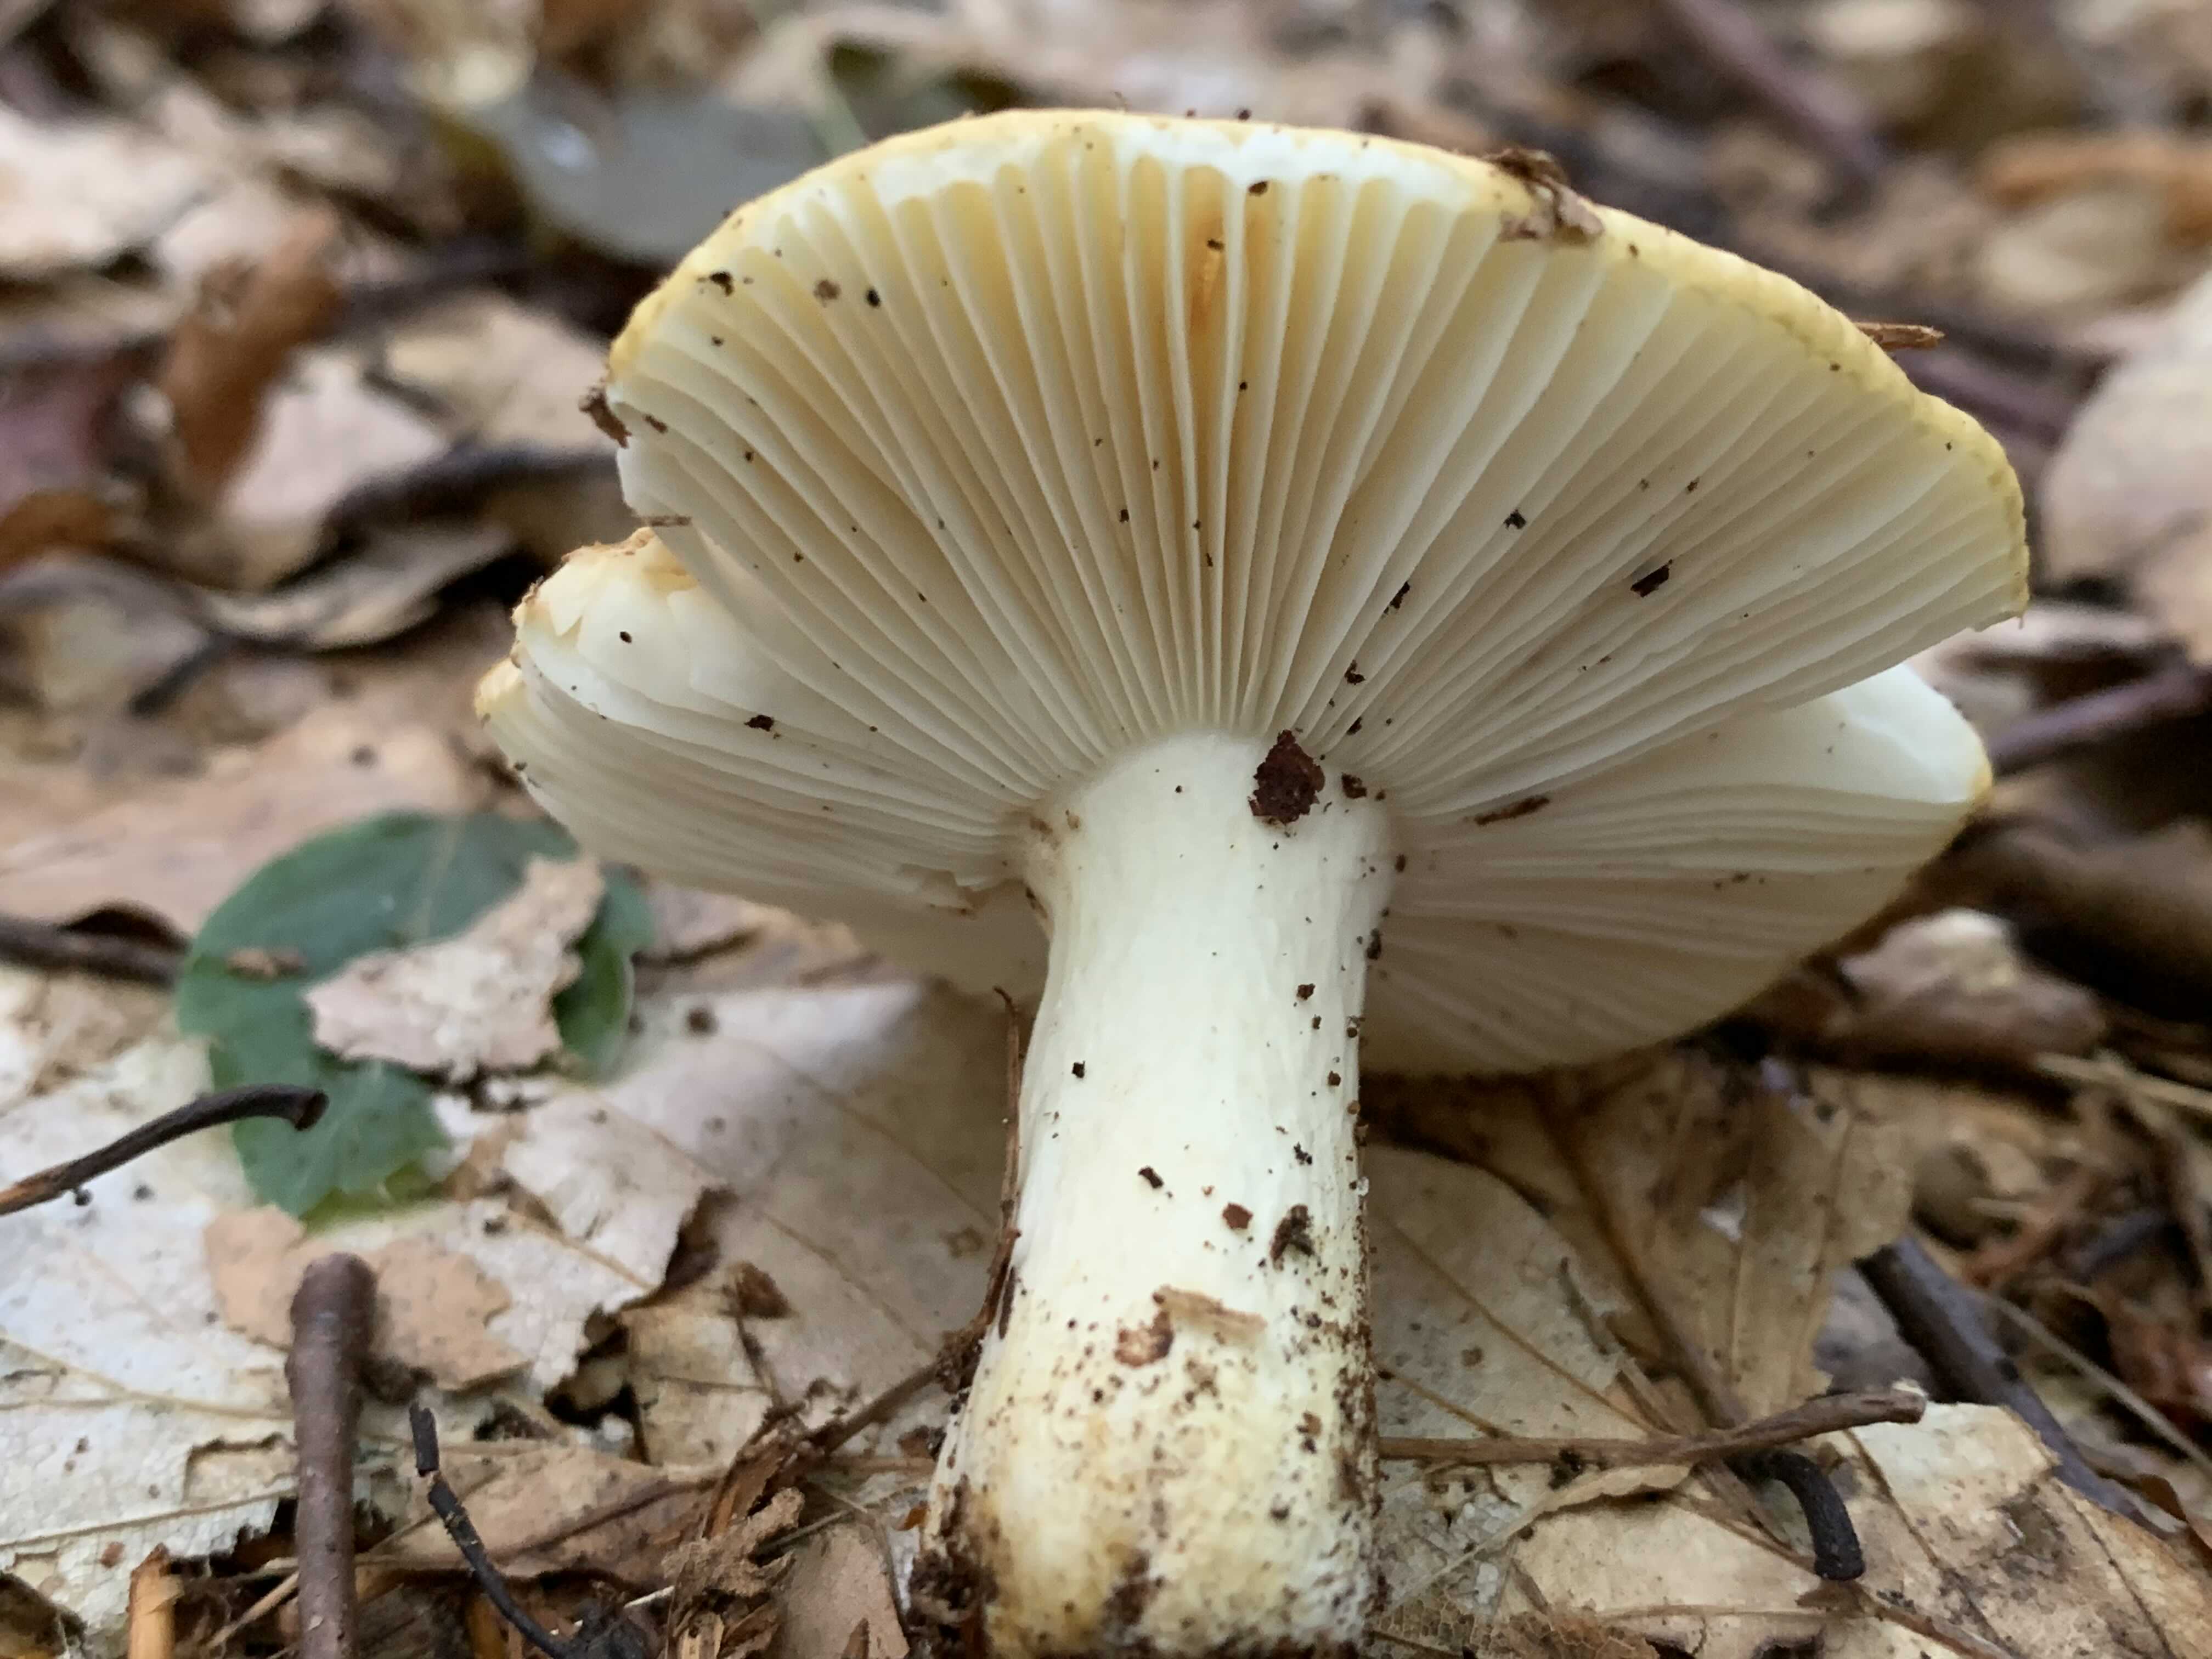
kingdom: Fungi
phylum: Basidiomycota
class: Agaricomycetes
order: Russulales
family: Russulaceae
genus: Russula
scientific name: Russula ochroleuca
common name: okkergul skørhat
